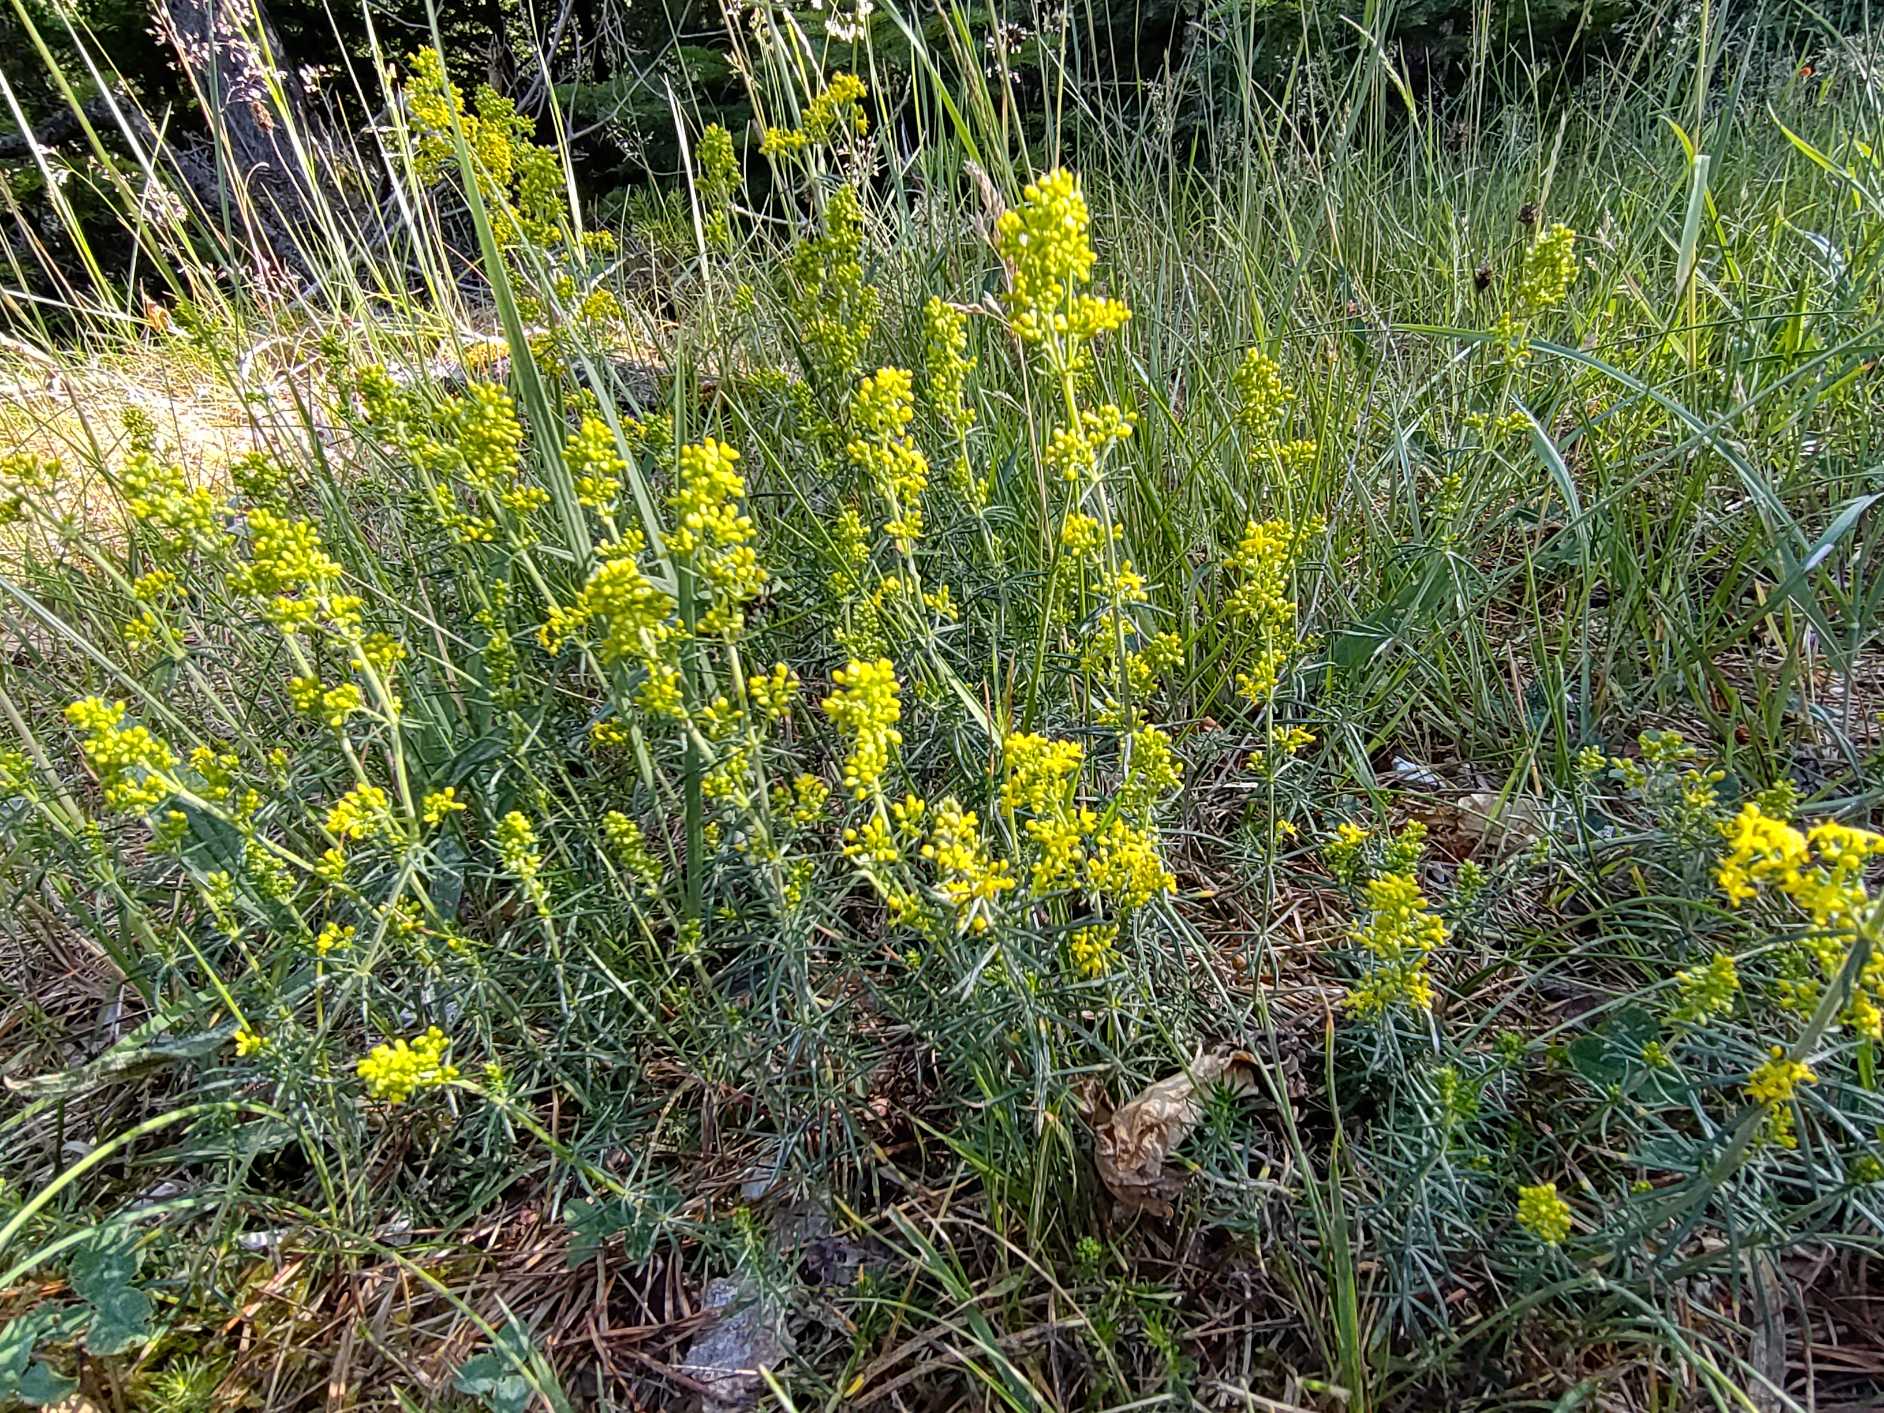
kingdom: Plantae
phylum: Tracheophyta
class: Magnoliopsida
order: Gentianales
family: Rubiaceae
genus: Galium
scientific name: Galium verum
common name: Gul snerre
